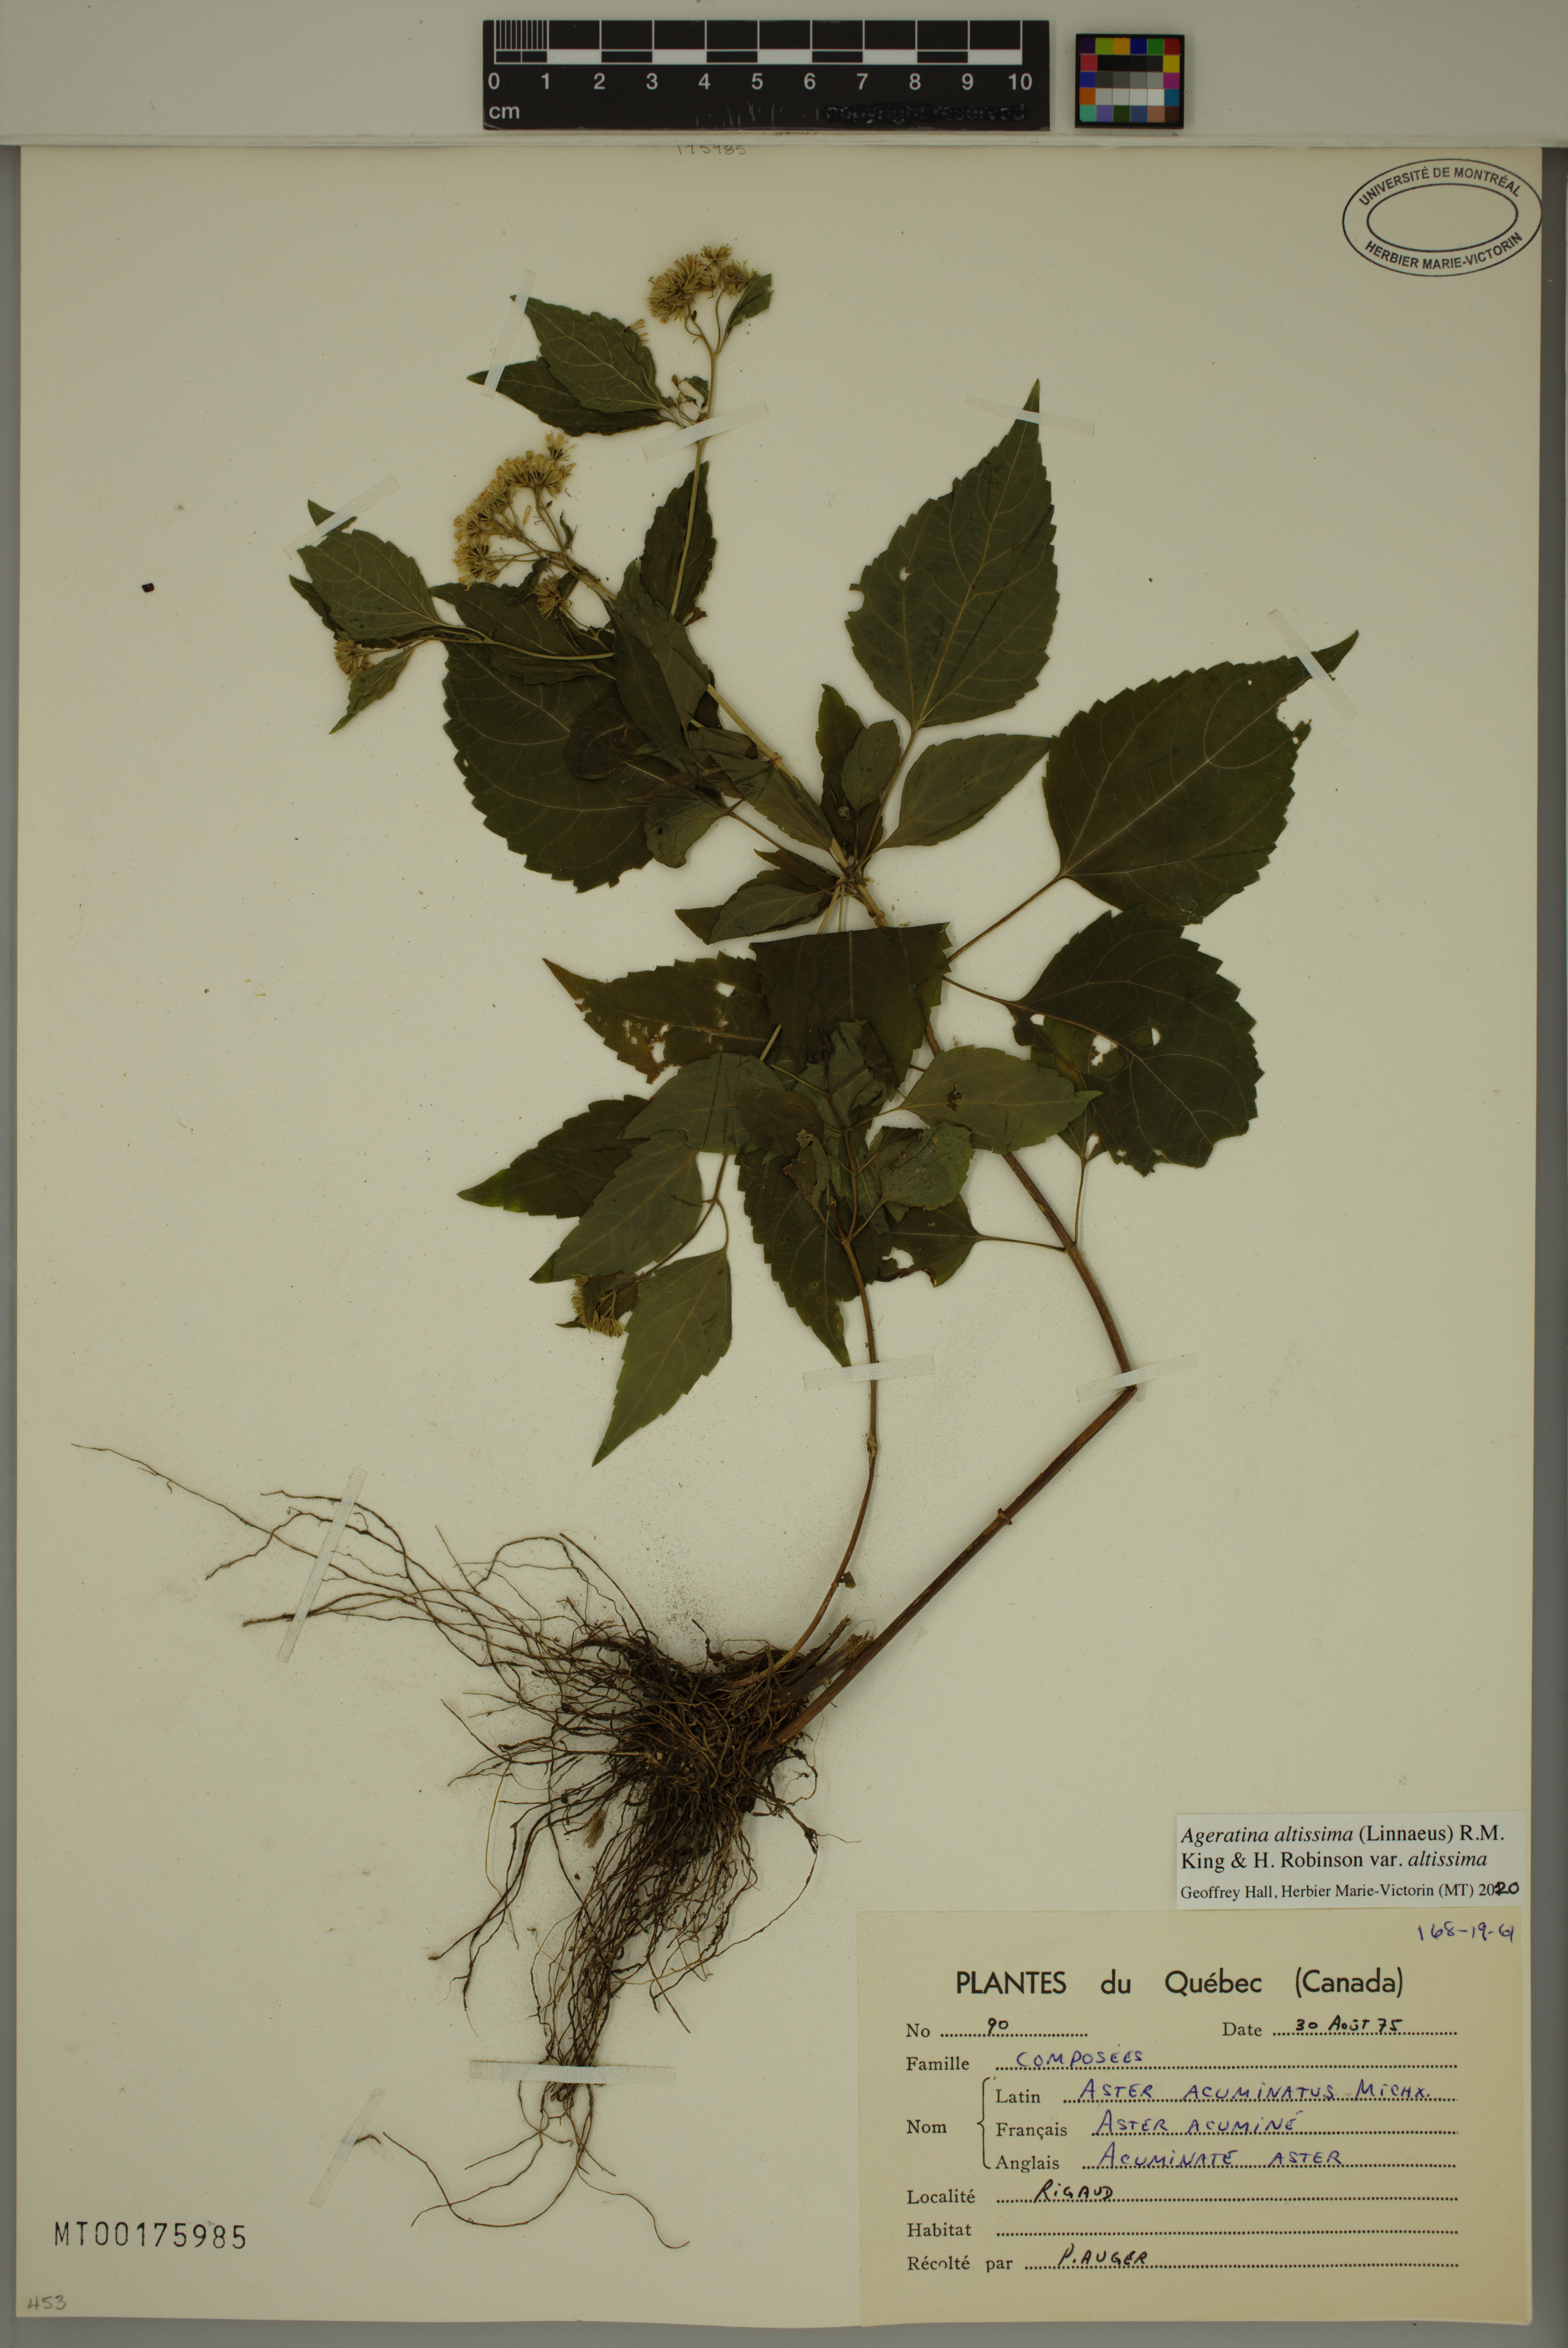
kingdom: Plantae
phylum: Tracheophyta
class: Magnoliopsida
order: Asterales
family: Asteraceae
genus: Ageratina
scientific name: Ageratina altissima
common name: White snakeroot
